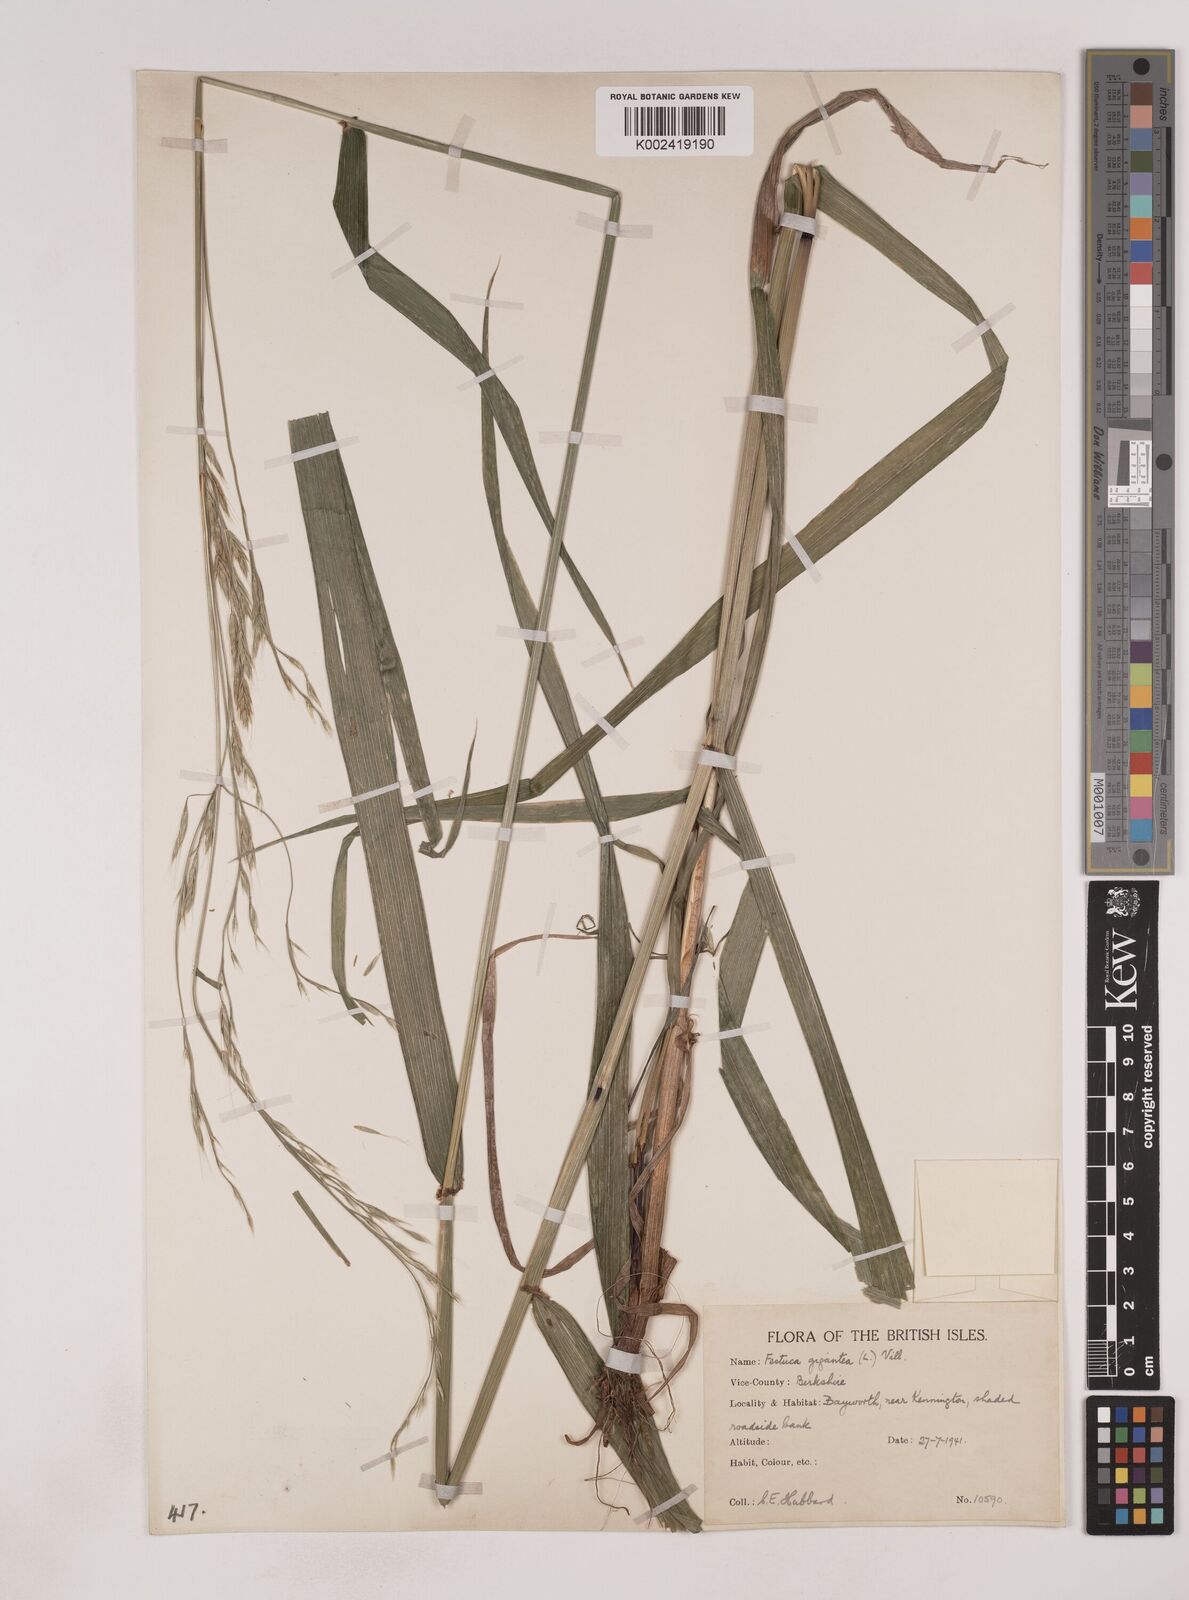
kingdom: Plantae
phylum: Tracheophyta
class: Liliopsida
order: Poales
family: Poaceae
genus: Lolium
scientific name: Lolium giganteum
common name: Giant fescue
